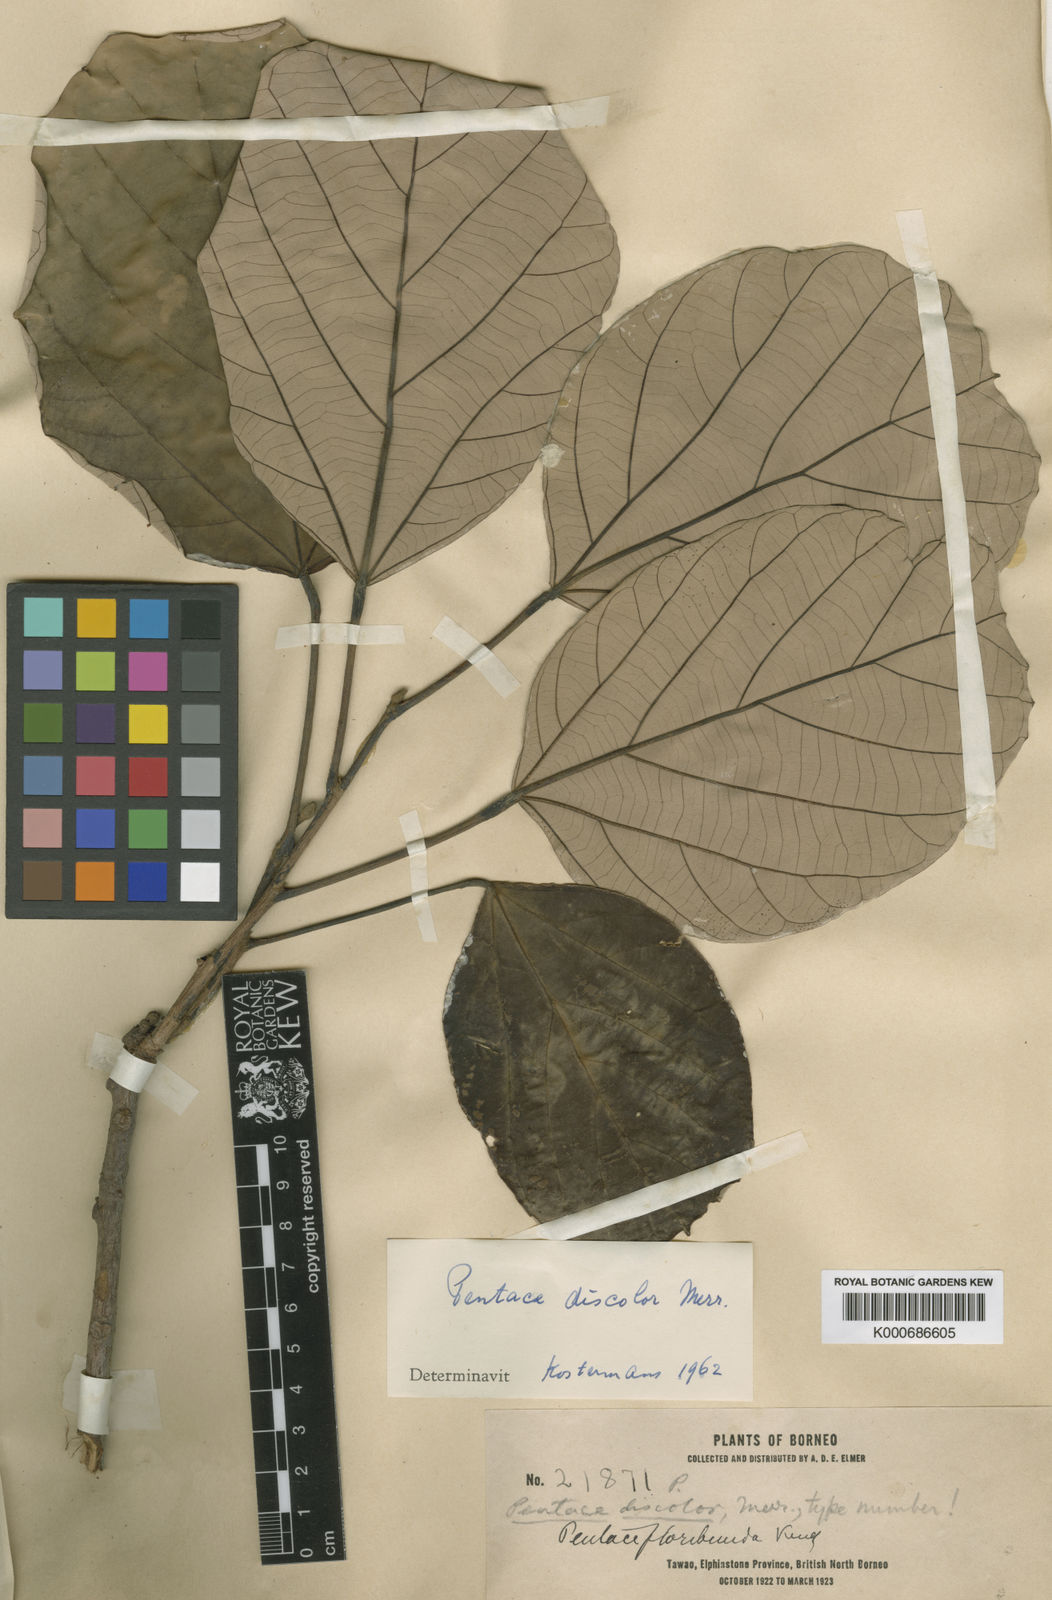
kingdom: Plantae
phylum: Tracheophyta
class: Magnoliopsida
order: Malvales
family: Malvaceae
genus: Pentace
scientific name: Pentace discolor
